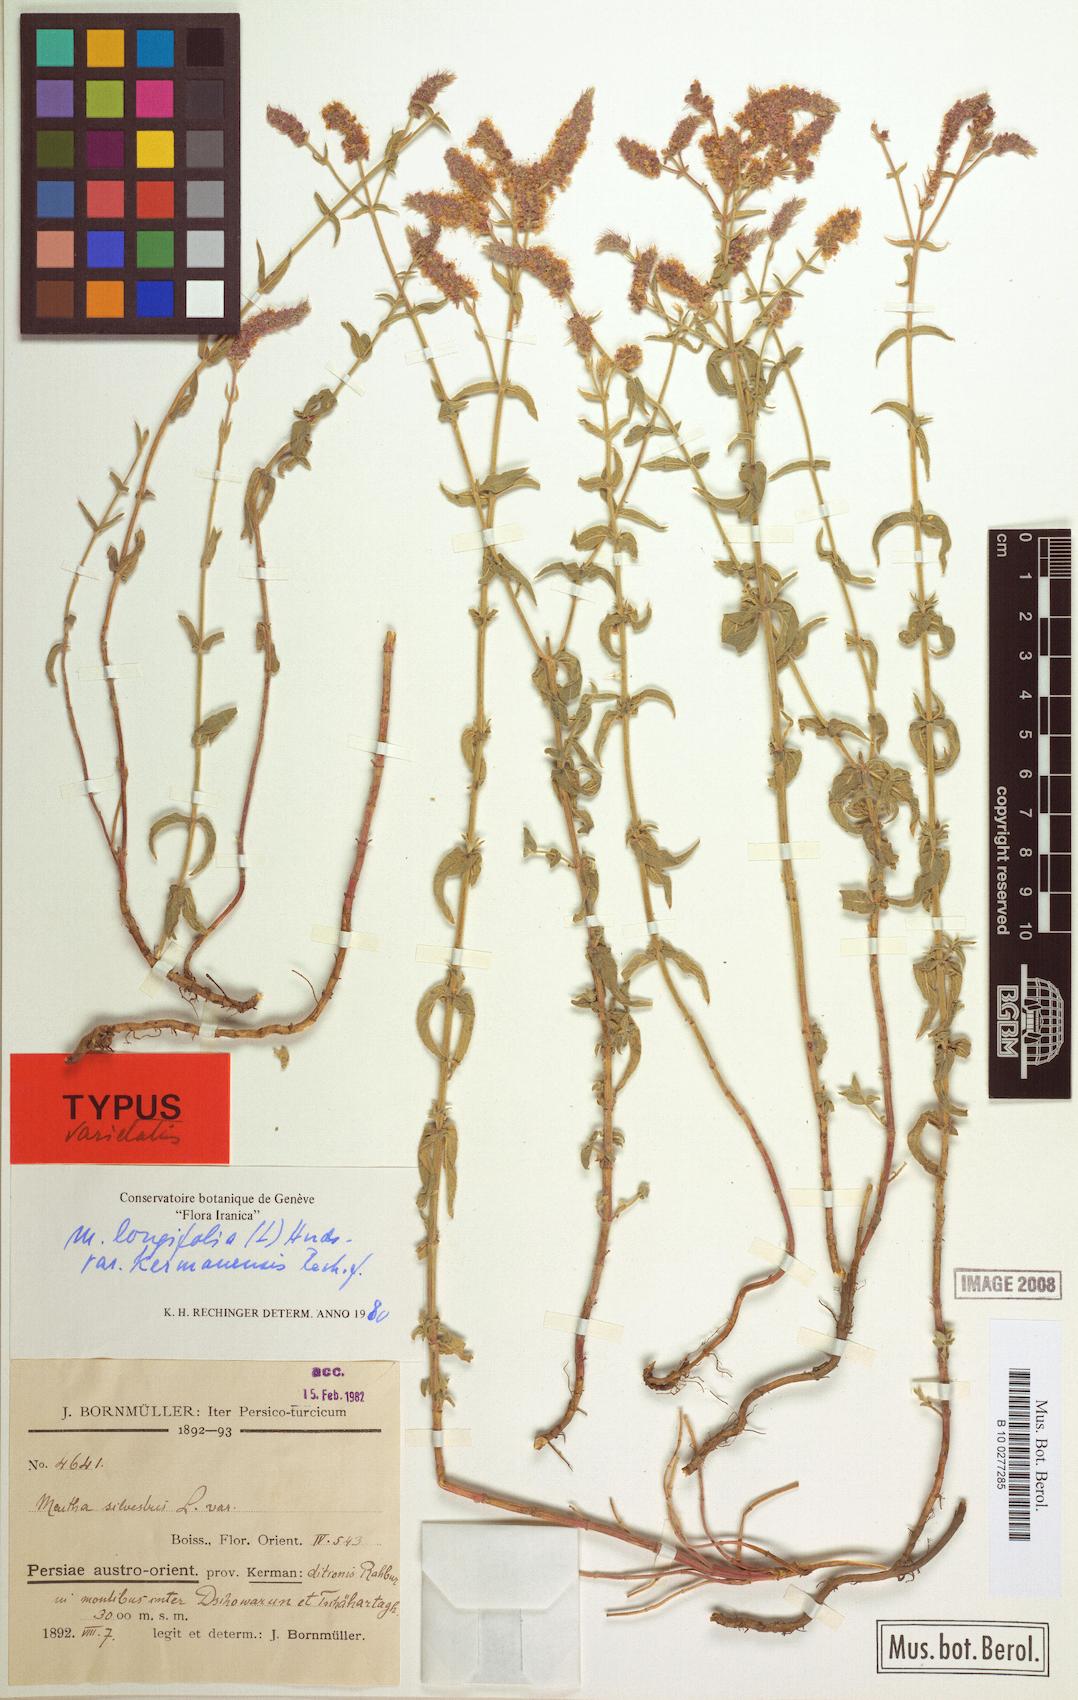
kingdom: Plantae
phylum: Tracheophyta
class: Magnoliopsida
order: Lamiales
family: Lamiaceae
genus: Mentha
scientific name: Mentha longifolia
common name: Horse mint
